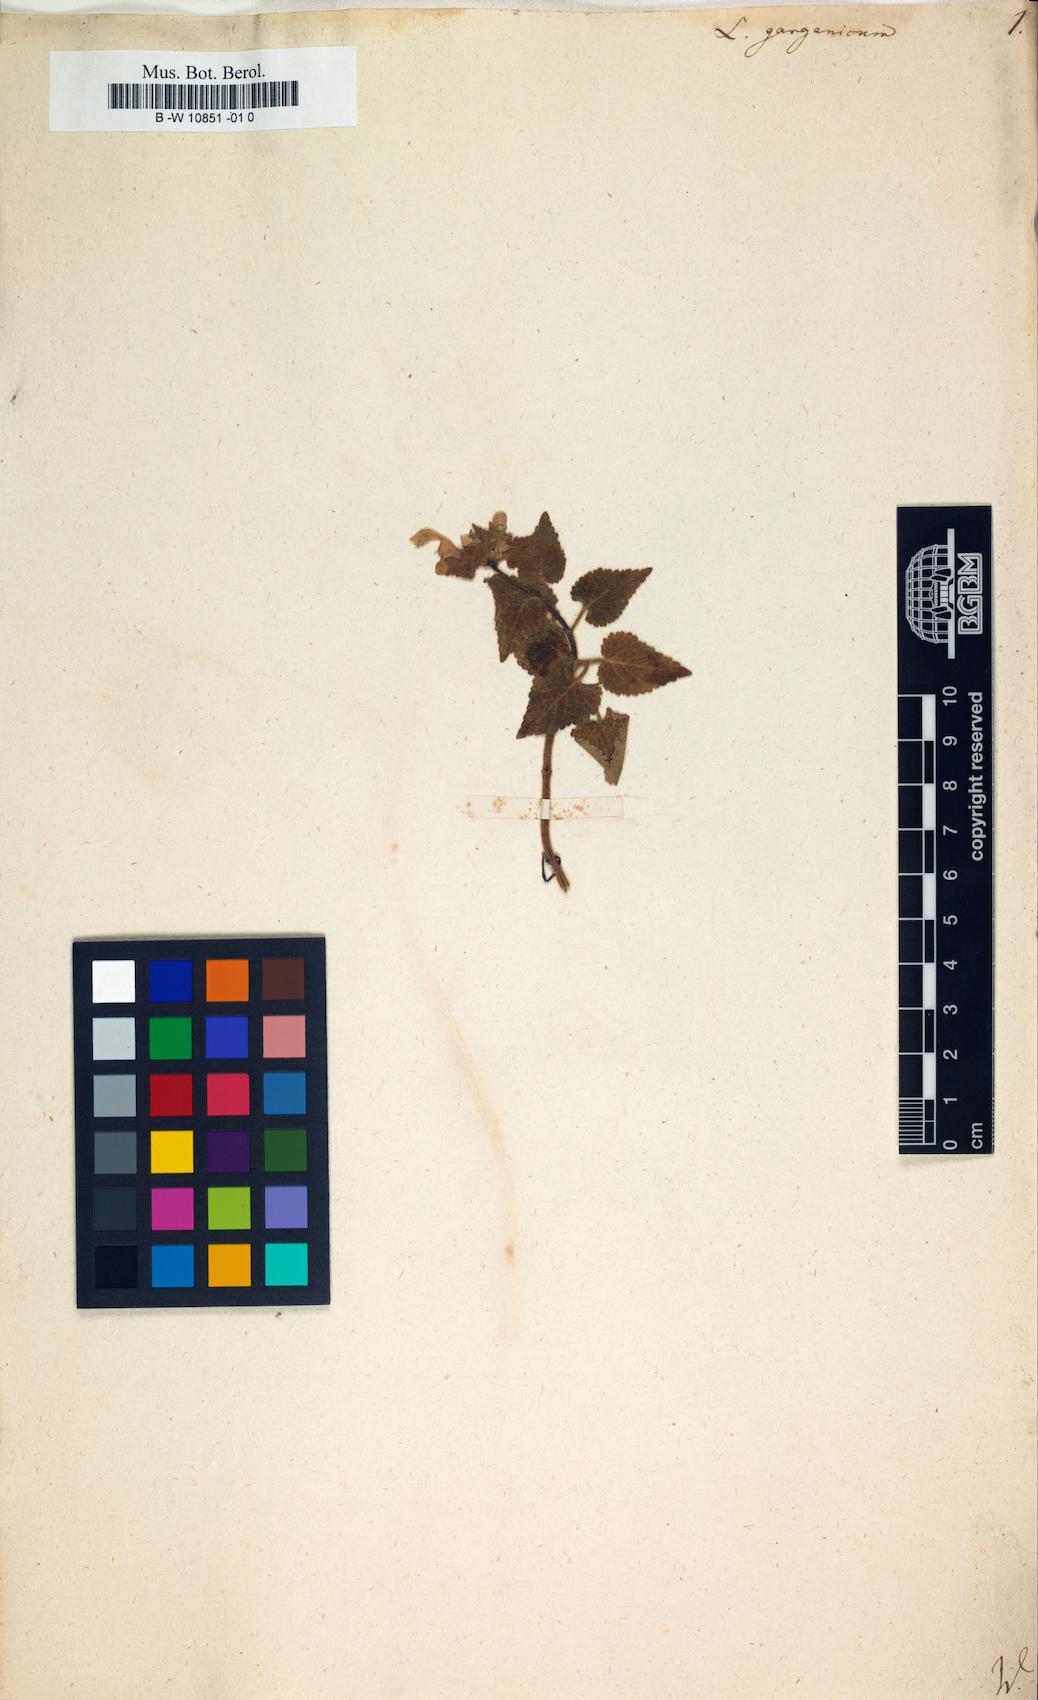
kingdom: Plantae
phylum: Tracheophyta
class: Magnoliopsida
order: Lamiales
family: Lamiaceae
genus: Lamium
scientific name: Lamium garganicum
